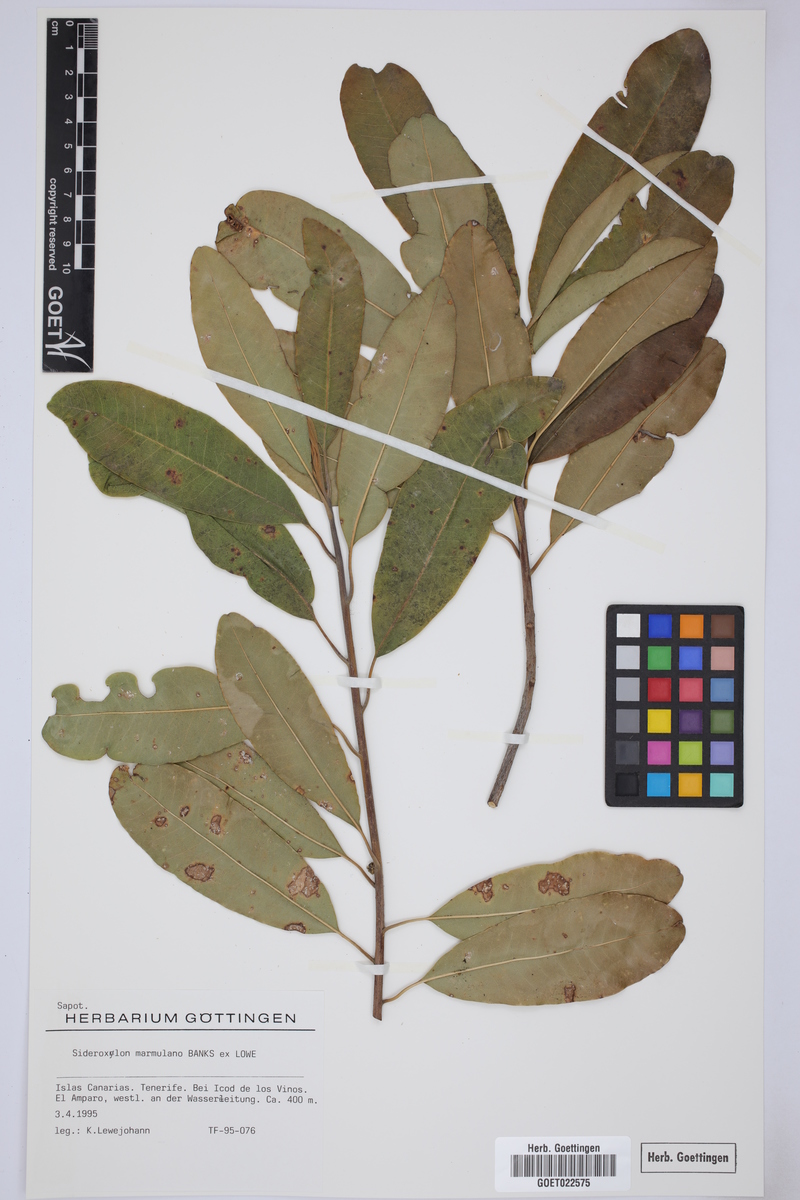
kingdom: Plantae
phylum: Tracheophyta
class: Magnoliopsida
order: Ericales
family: Sapotaceae
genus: Sideroxylon
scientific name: Sideroxylon mirmulano
